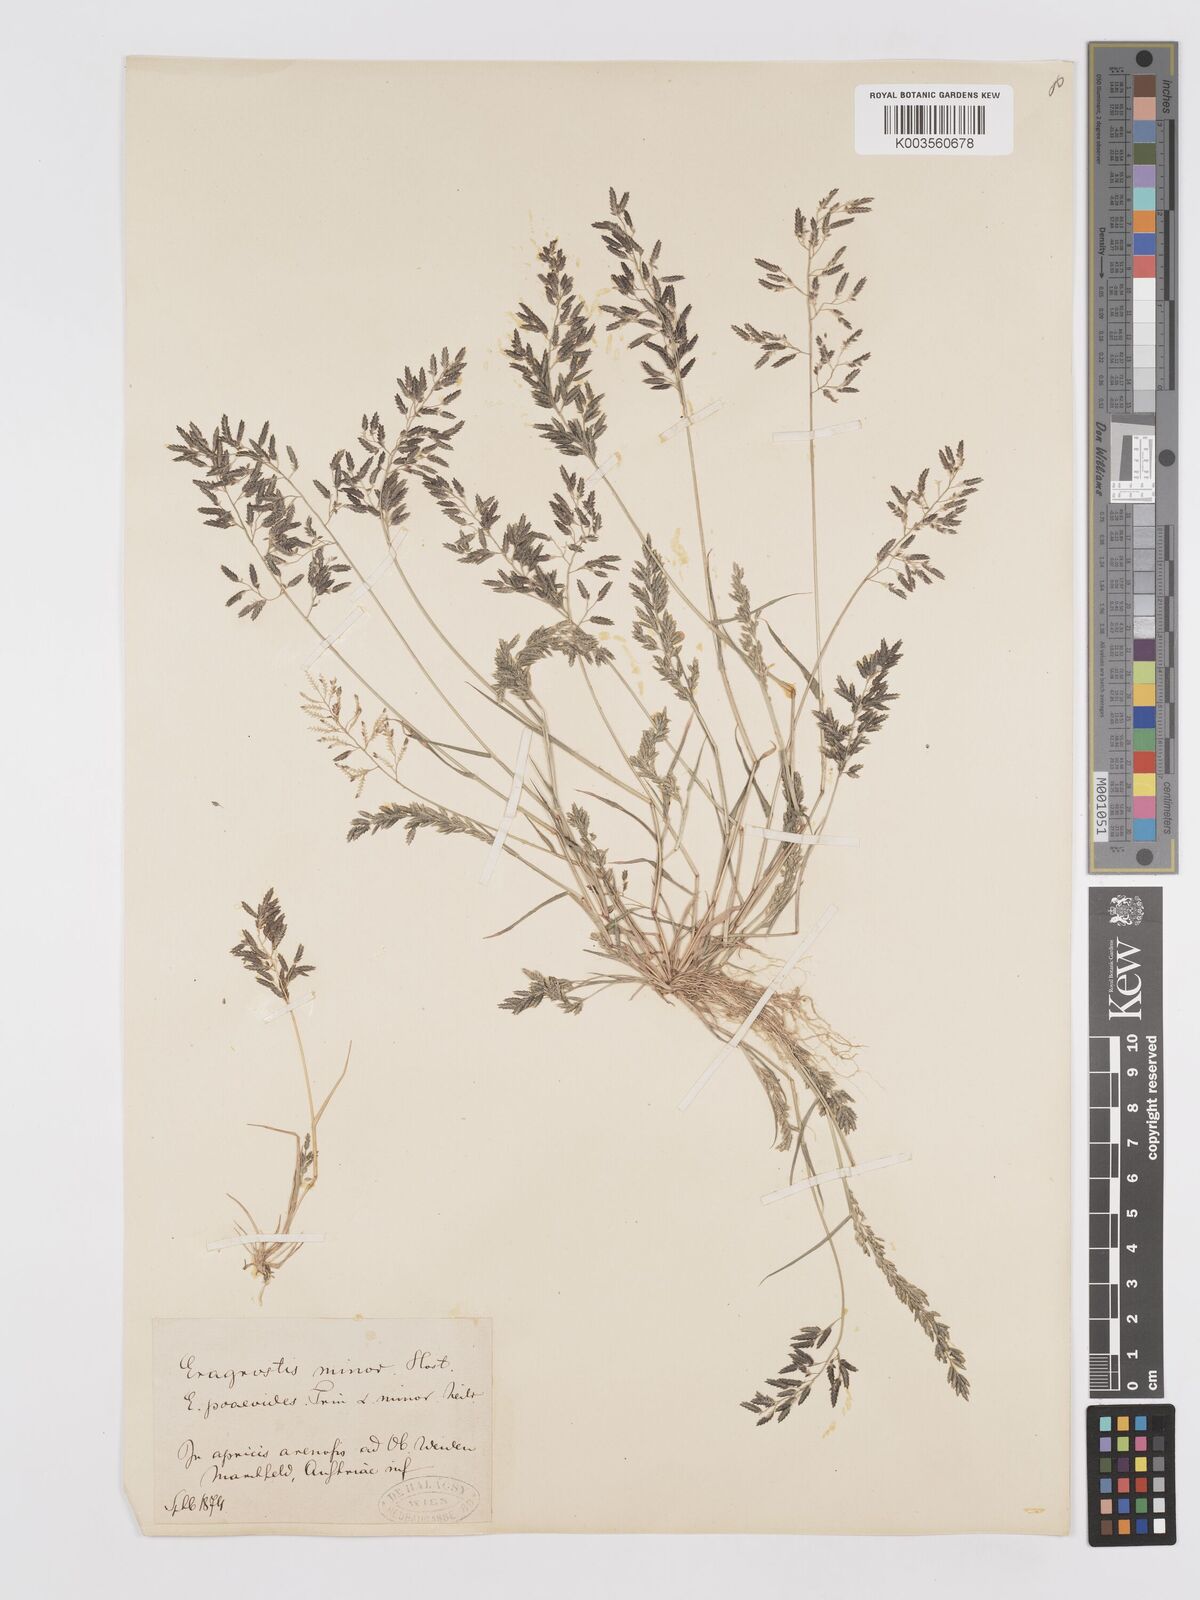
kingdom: Plantae
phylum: Tracheophyta
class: Liliopsida
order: Poales
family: Poaceae
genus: Eragrostis
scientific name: Eragrostis minor
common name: Small love-grass
